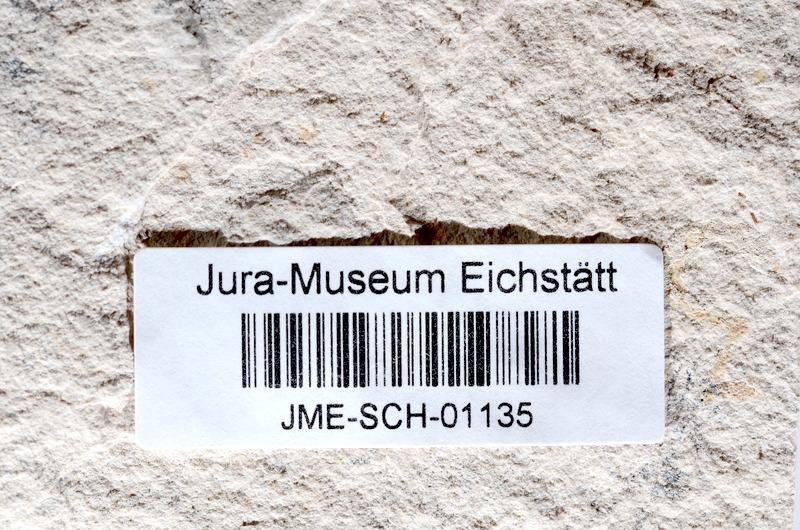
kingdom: Animalia
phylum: Chordata
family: Ascalaboidae
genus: Tharsis
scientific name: Tharsis dubius
